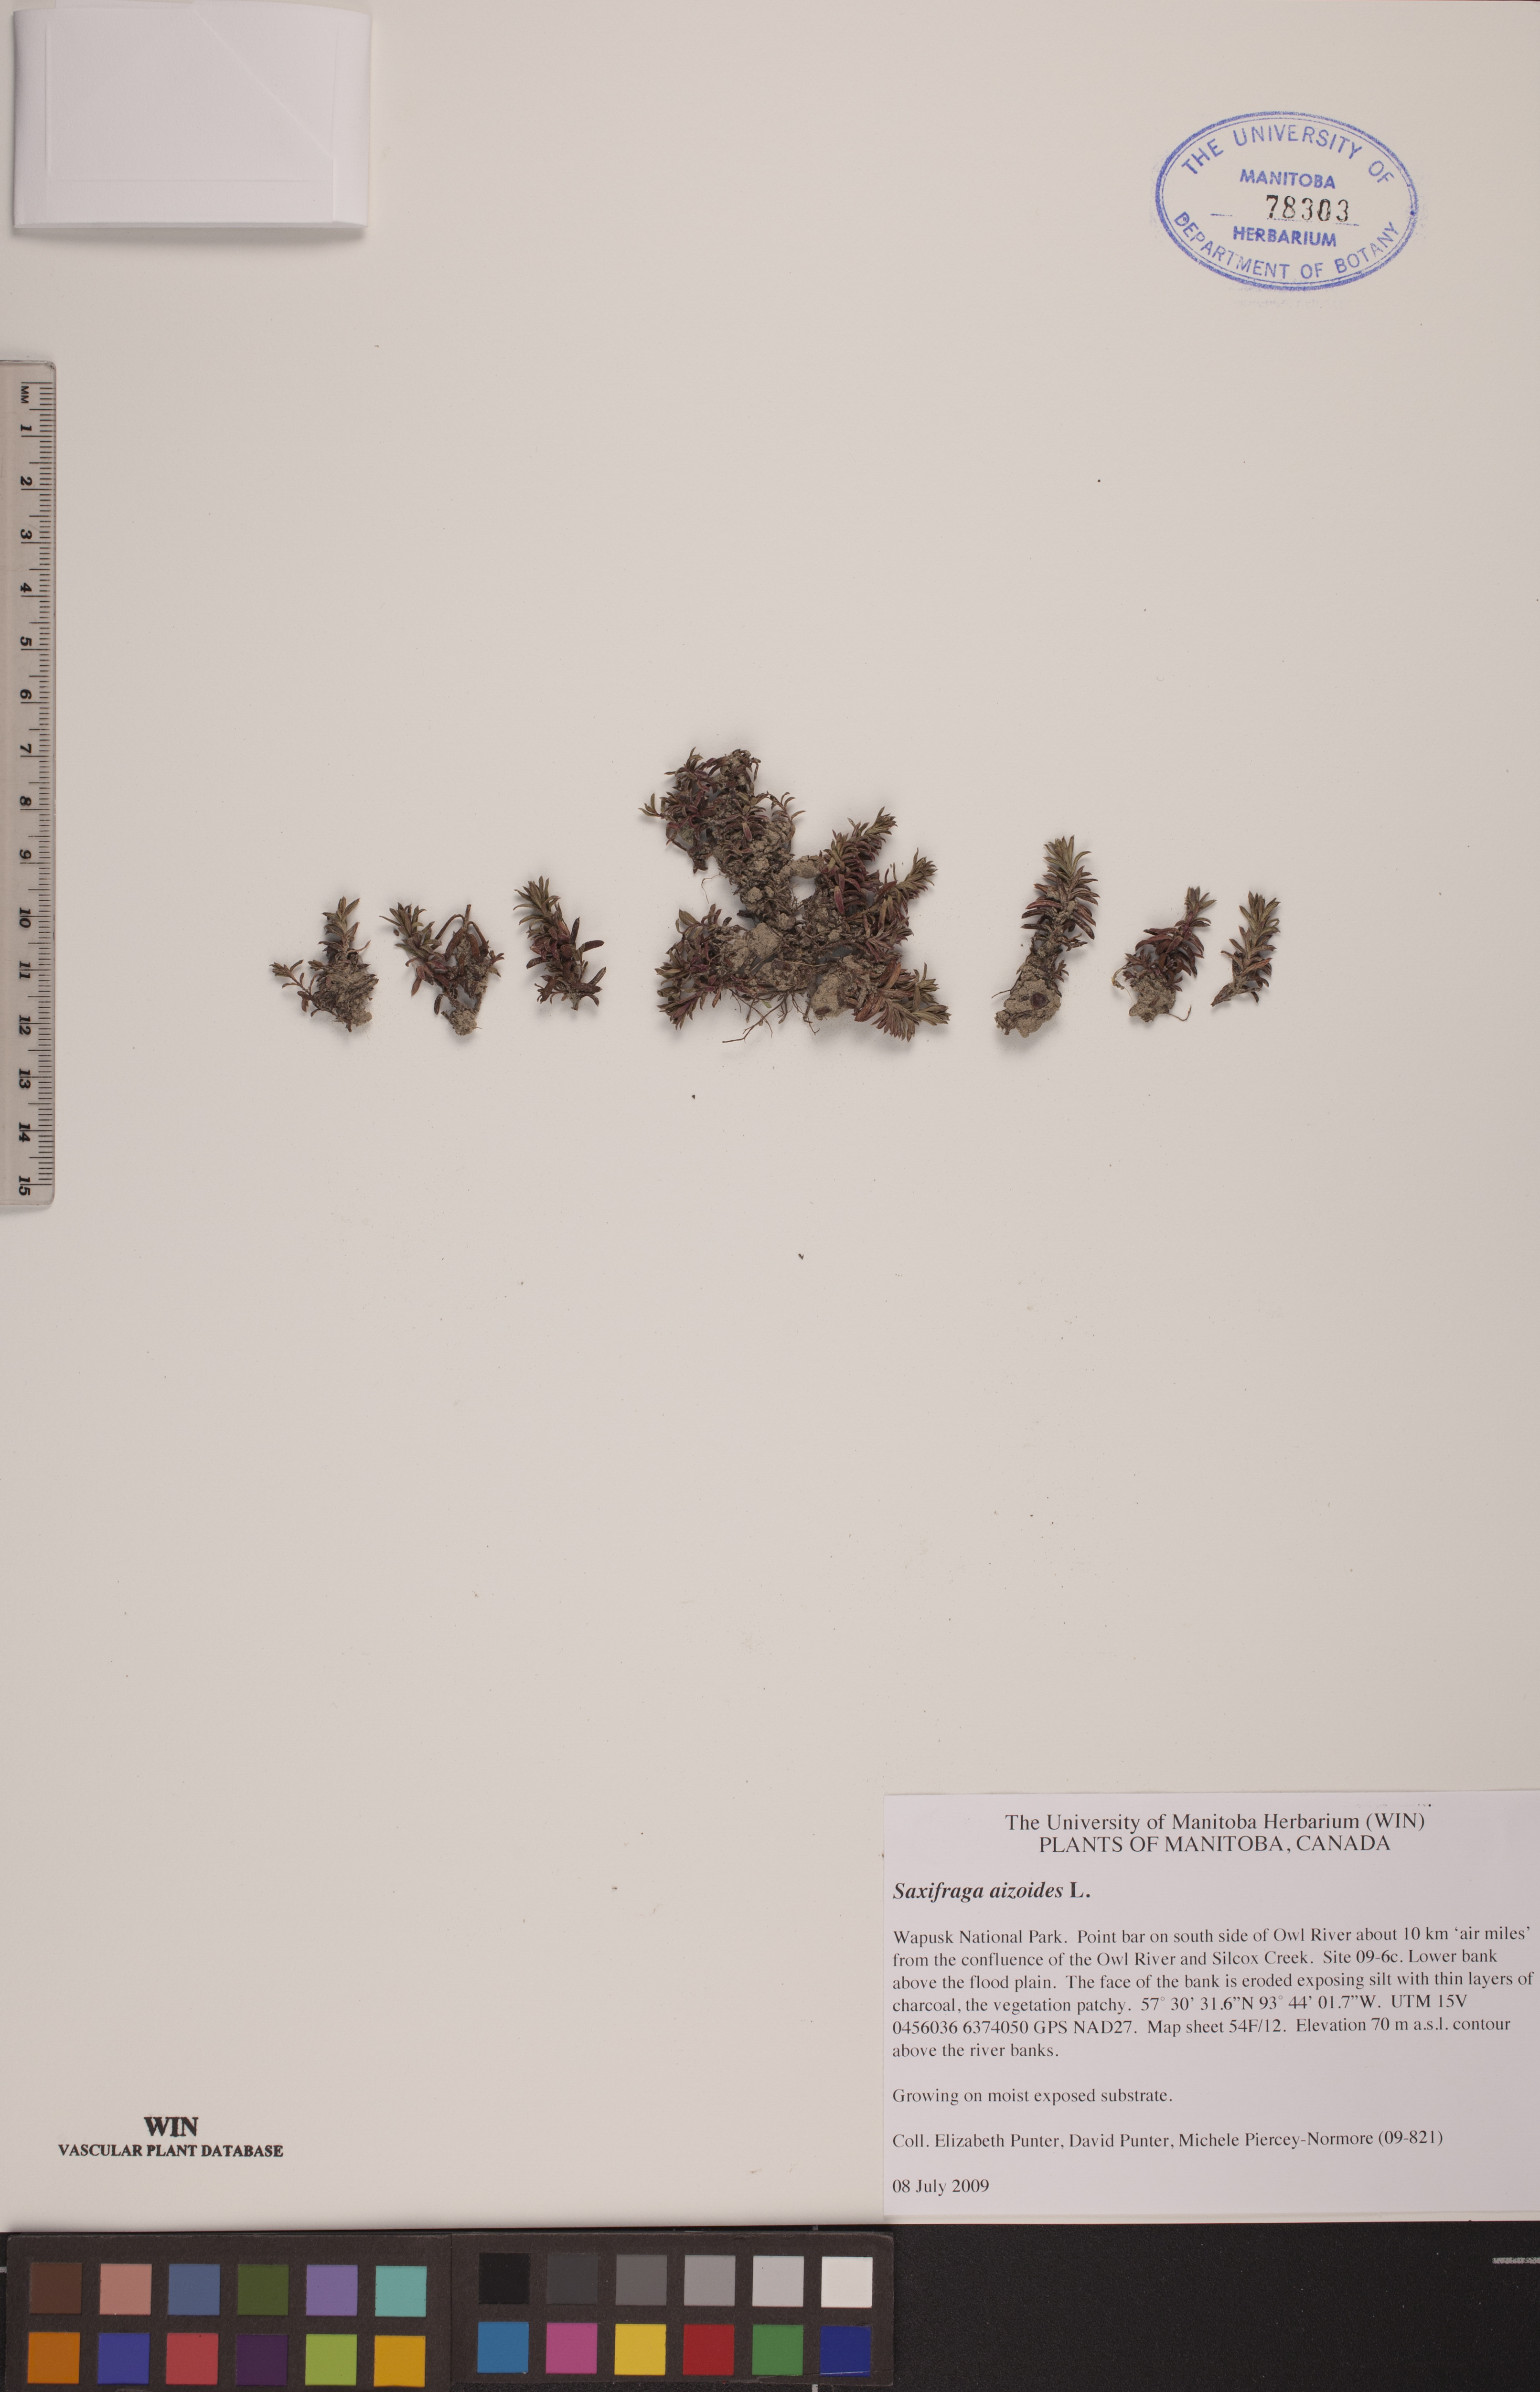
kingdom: Plantae
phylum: Tracheophyta
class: Magnoliopsida
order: Saxifragales
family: Saxifragaceae
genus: Saxifraga
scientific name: Saxifraga aizoides
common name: Yellow mountain saxifrage
